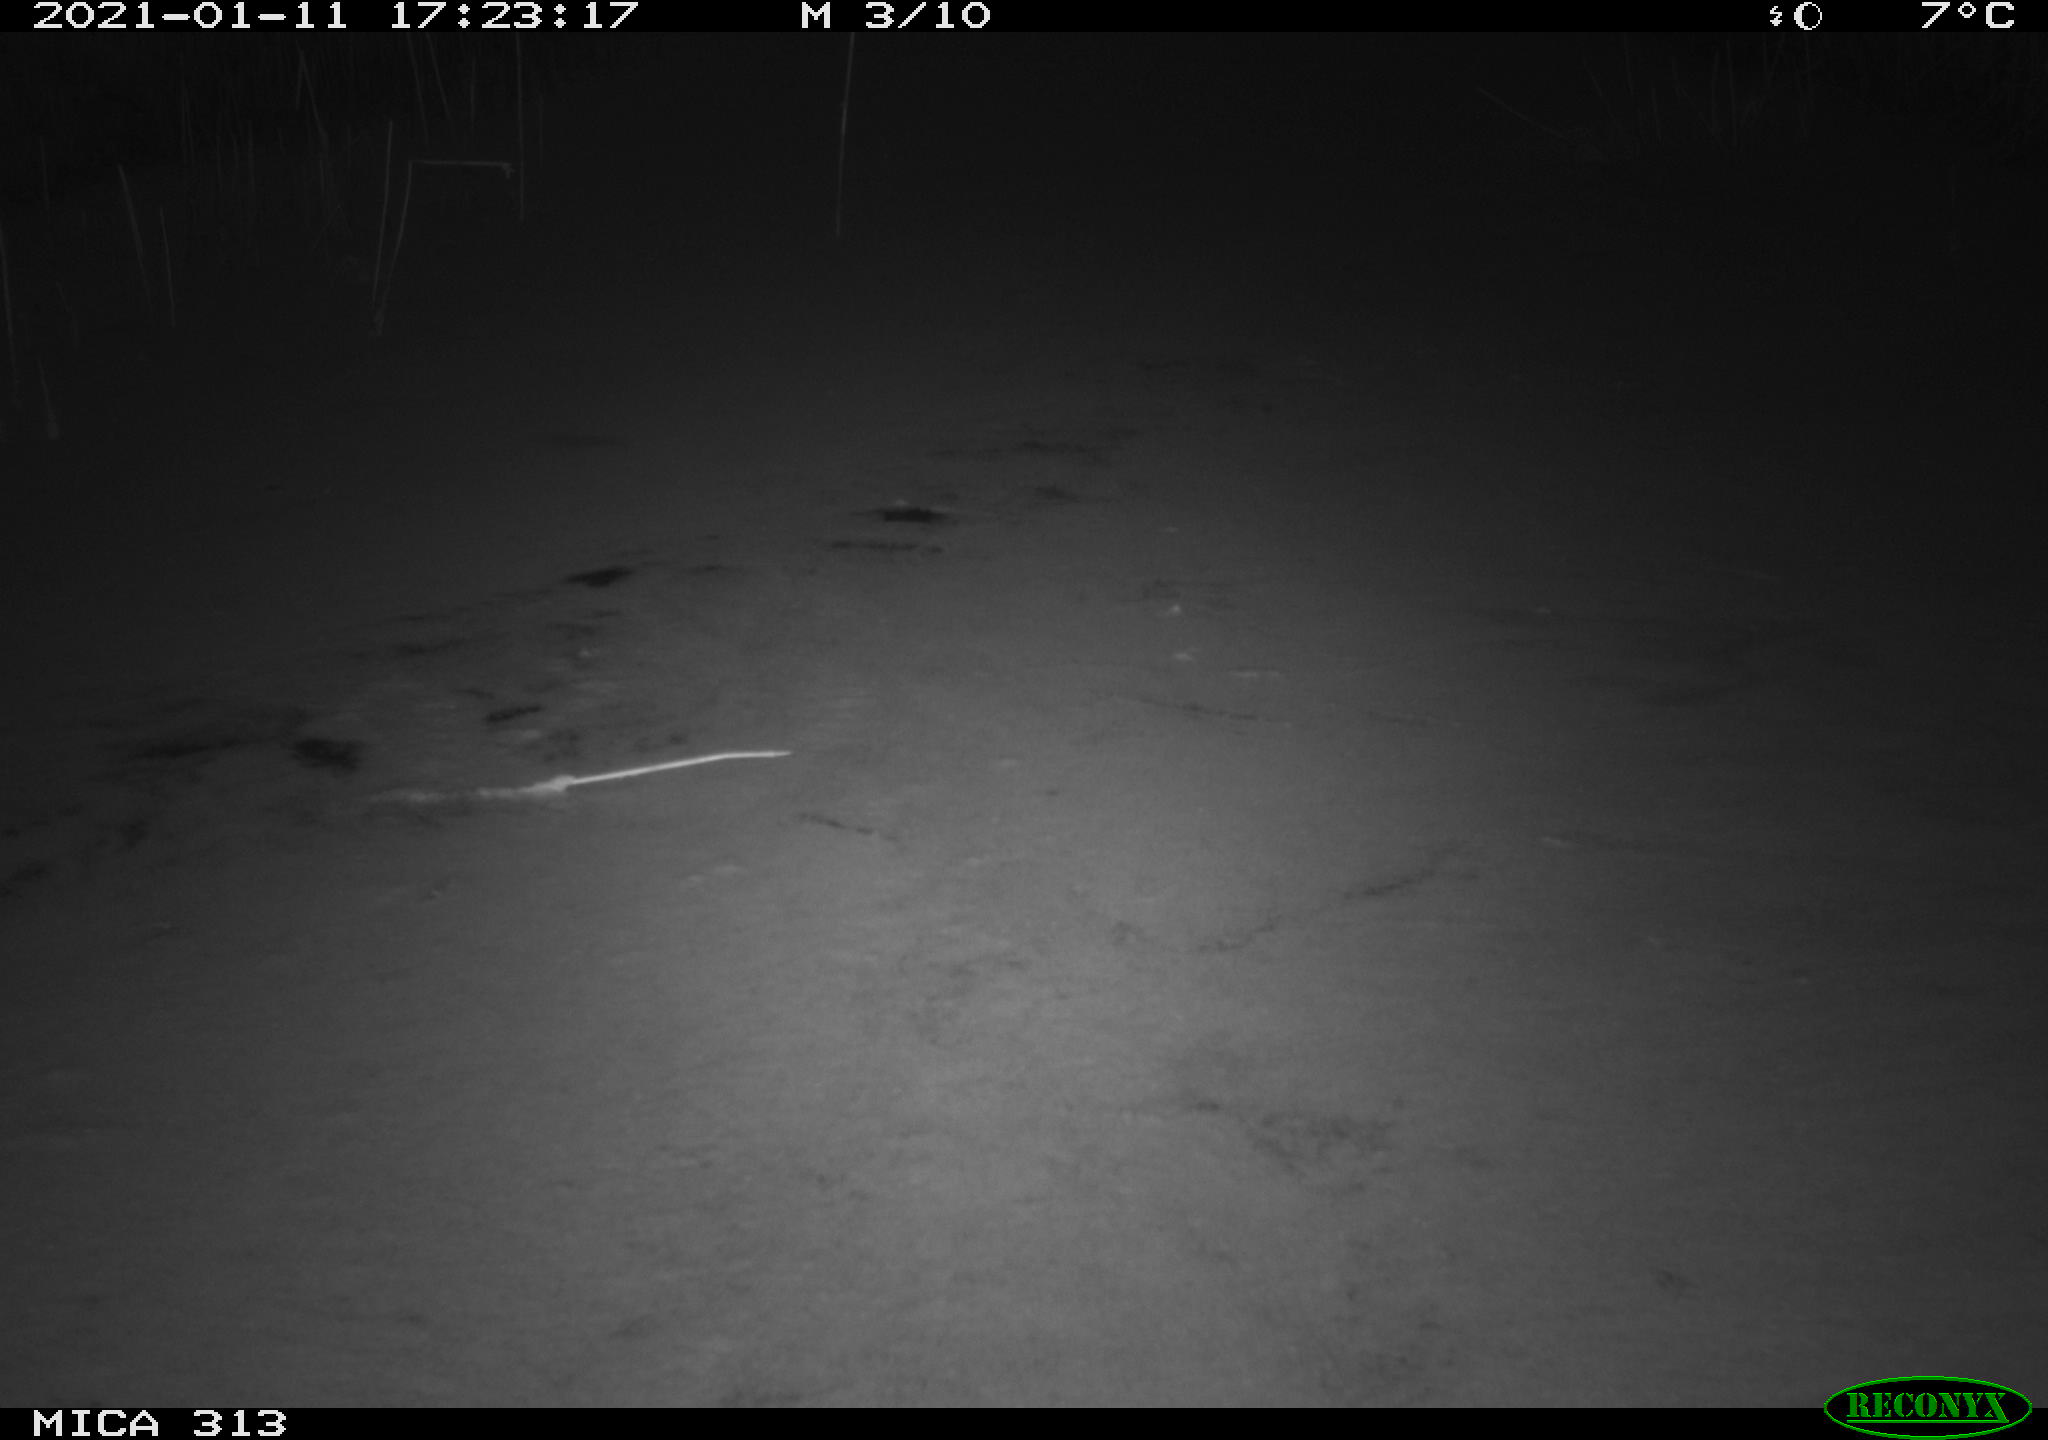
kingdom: Animalia
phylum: Chordata
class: Aves
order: Gruiformes
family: Rallidae
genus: Gallinula
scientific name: Gallinula chloropus
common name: Common moorhen
